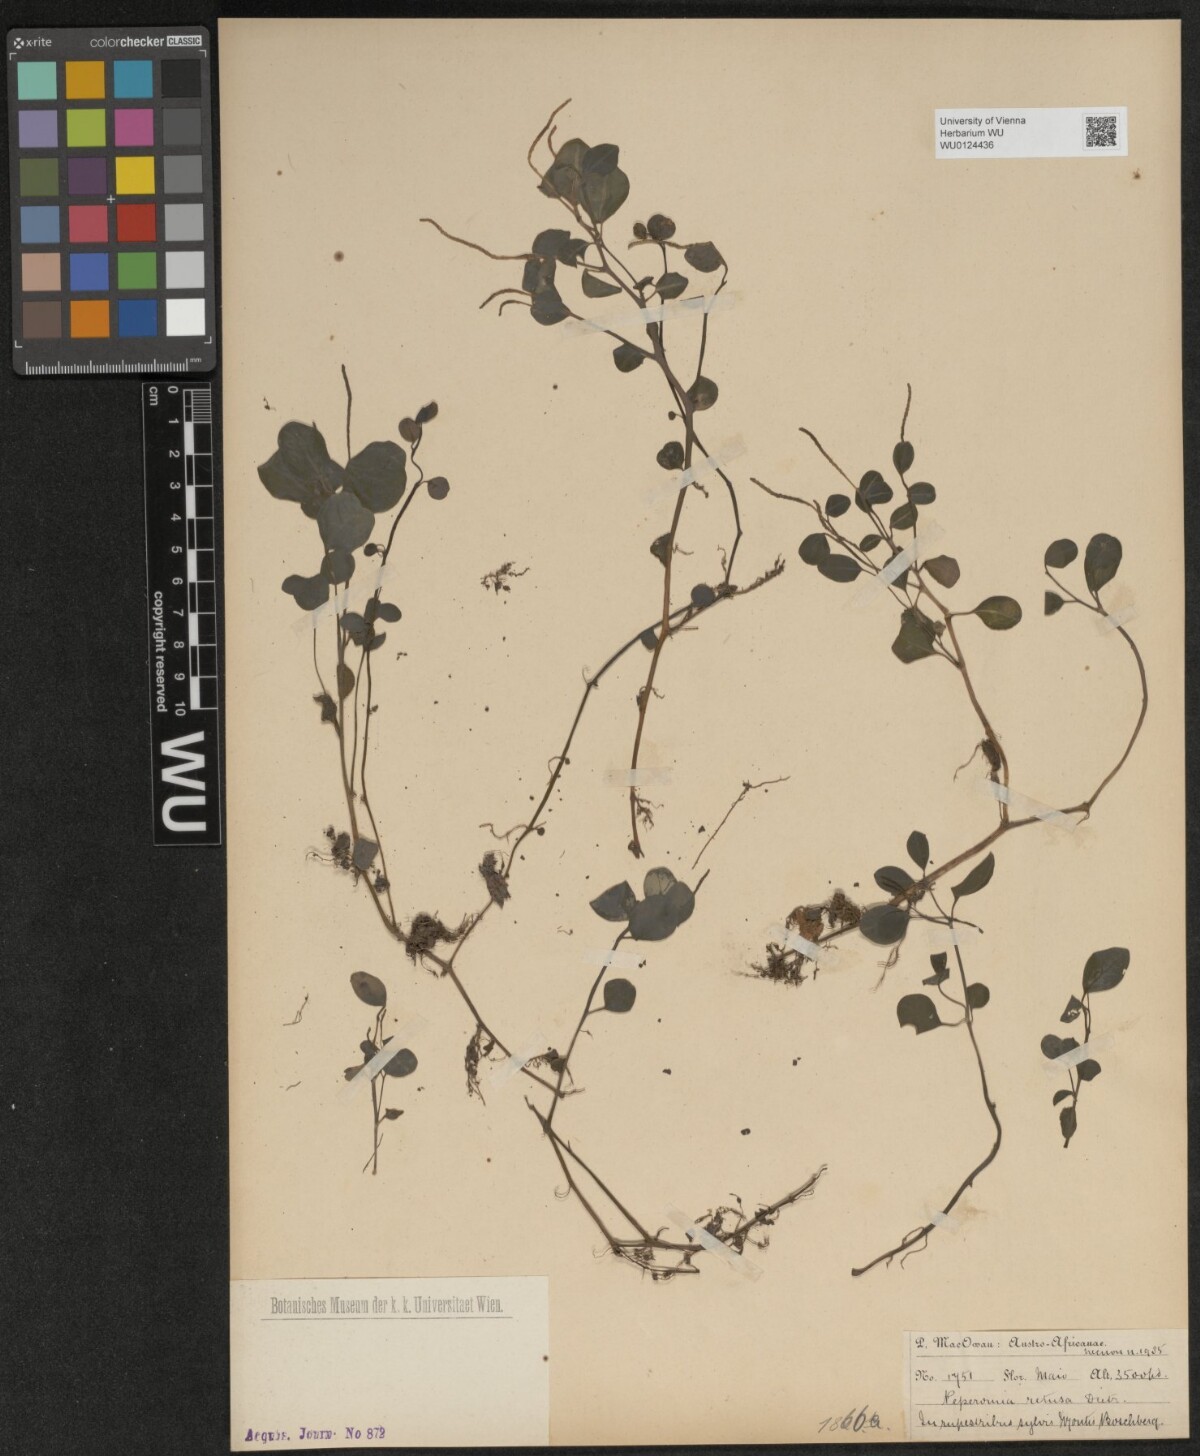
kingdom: Plantae
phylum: Tracheophyta
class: Magnoliopsida
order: Piperales
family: Piperaceae
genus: Peperomia
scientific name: Peperomia retusa
